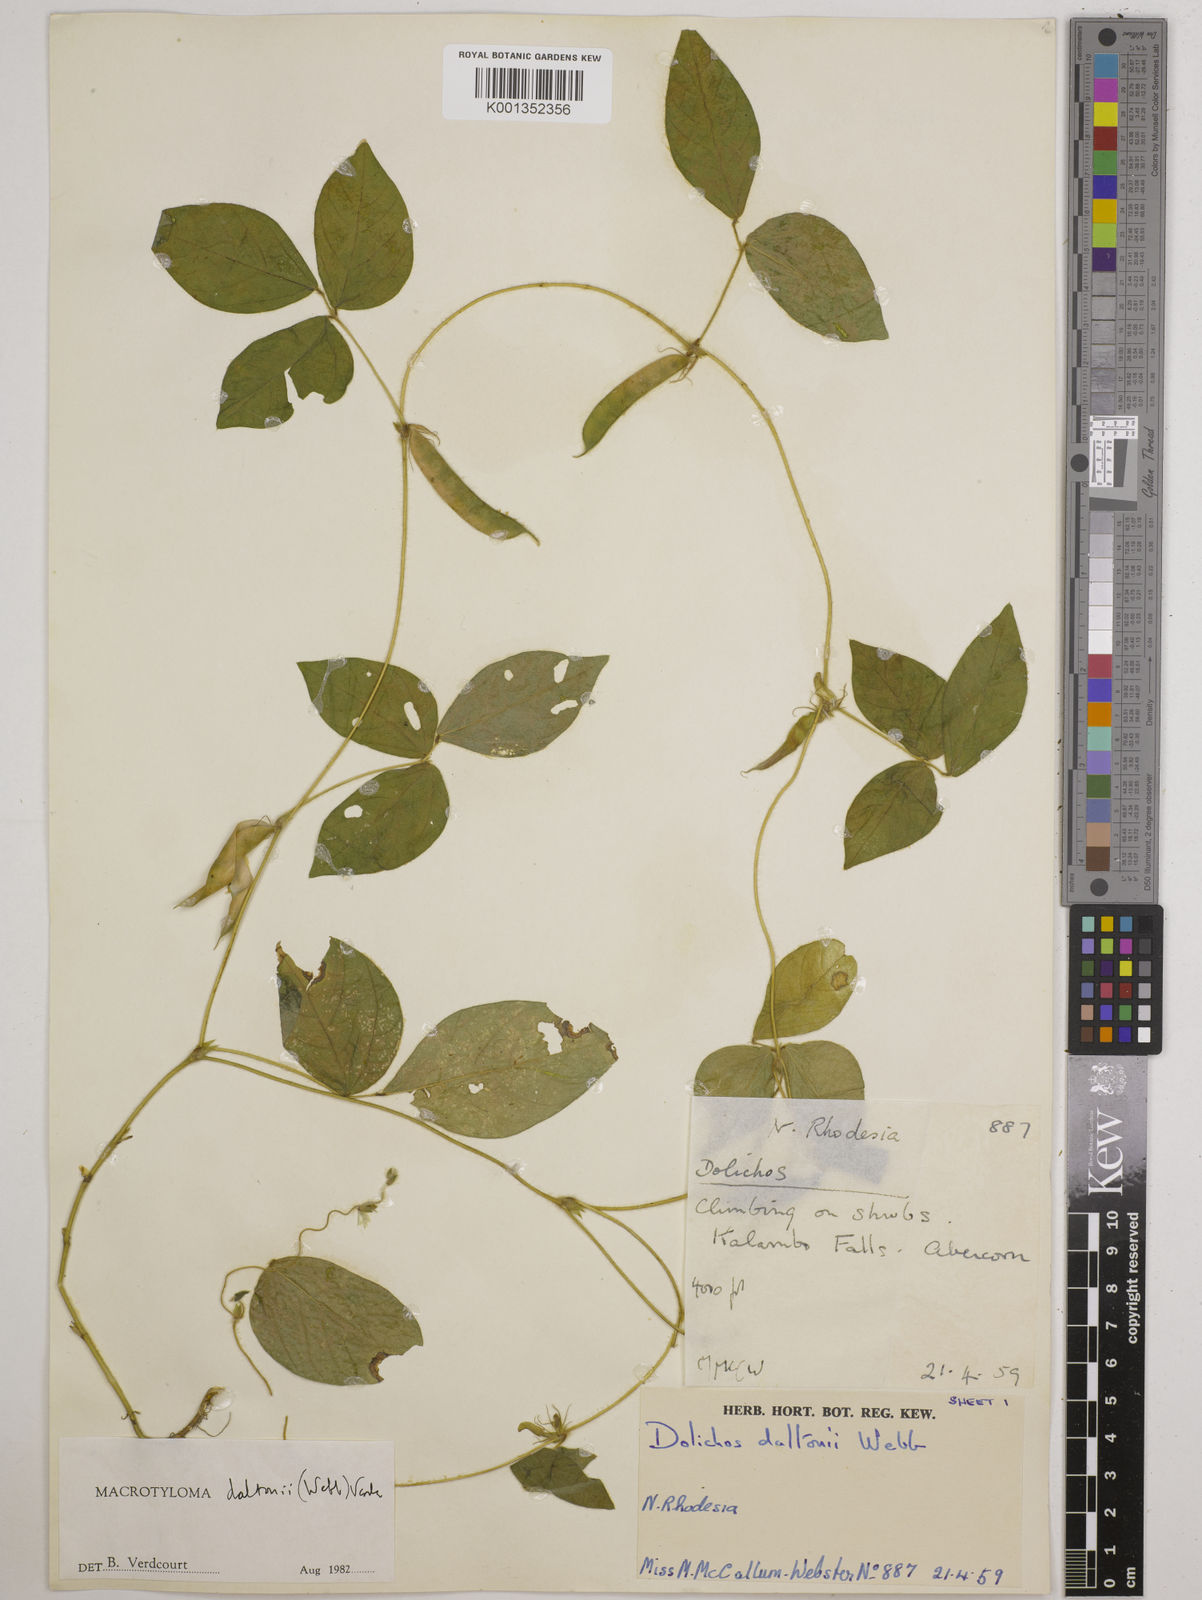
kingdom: Plantae
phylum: Tracheophyta
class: Magnoliopsida
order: Fabales
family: Fabaceae
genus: Macrotyloma
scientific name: Macrotyloma daltonii
